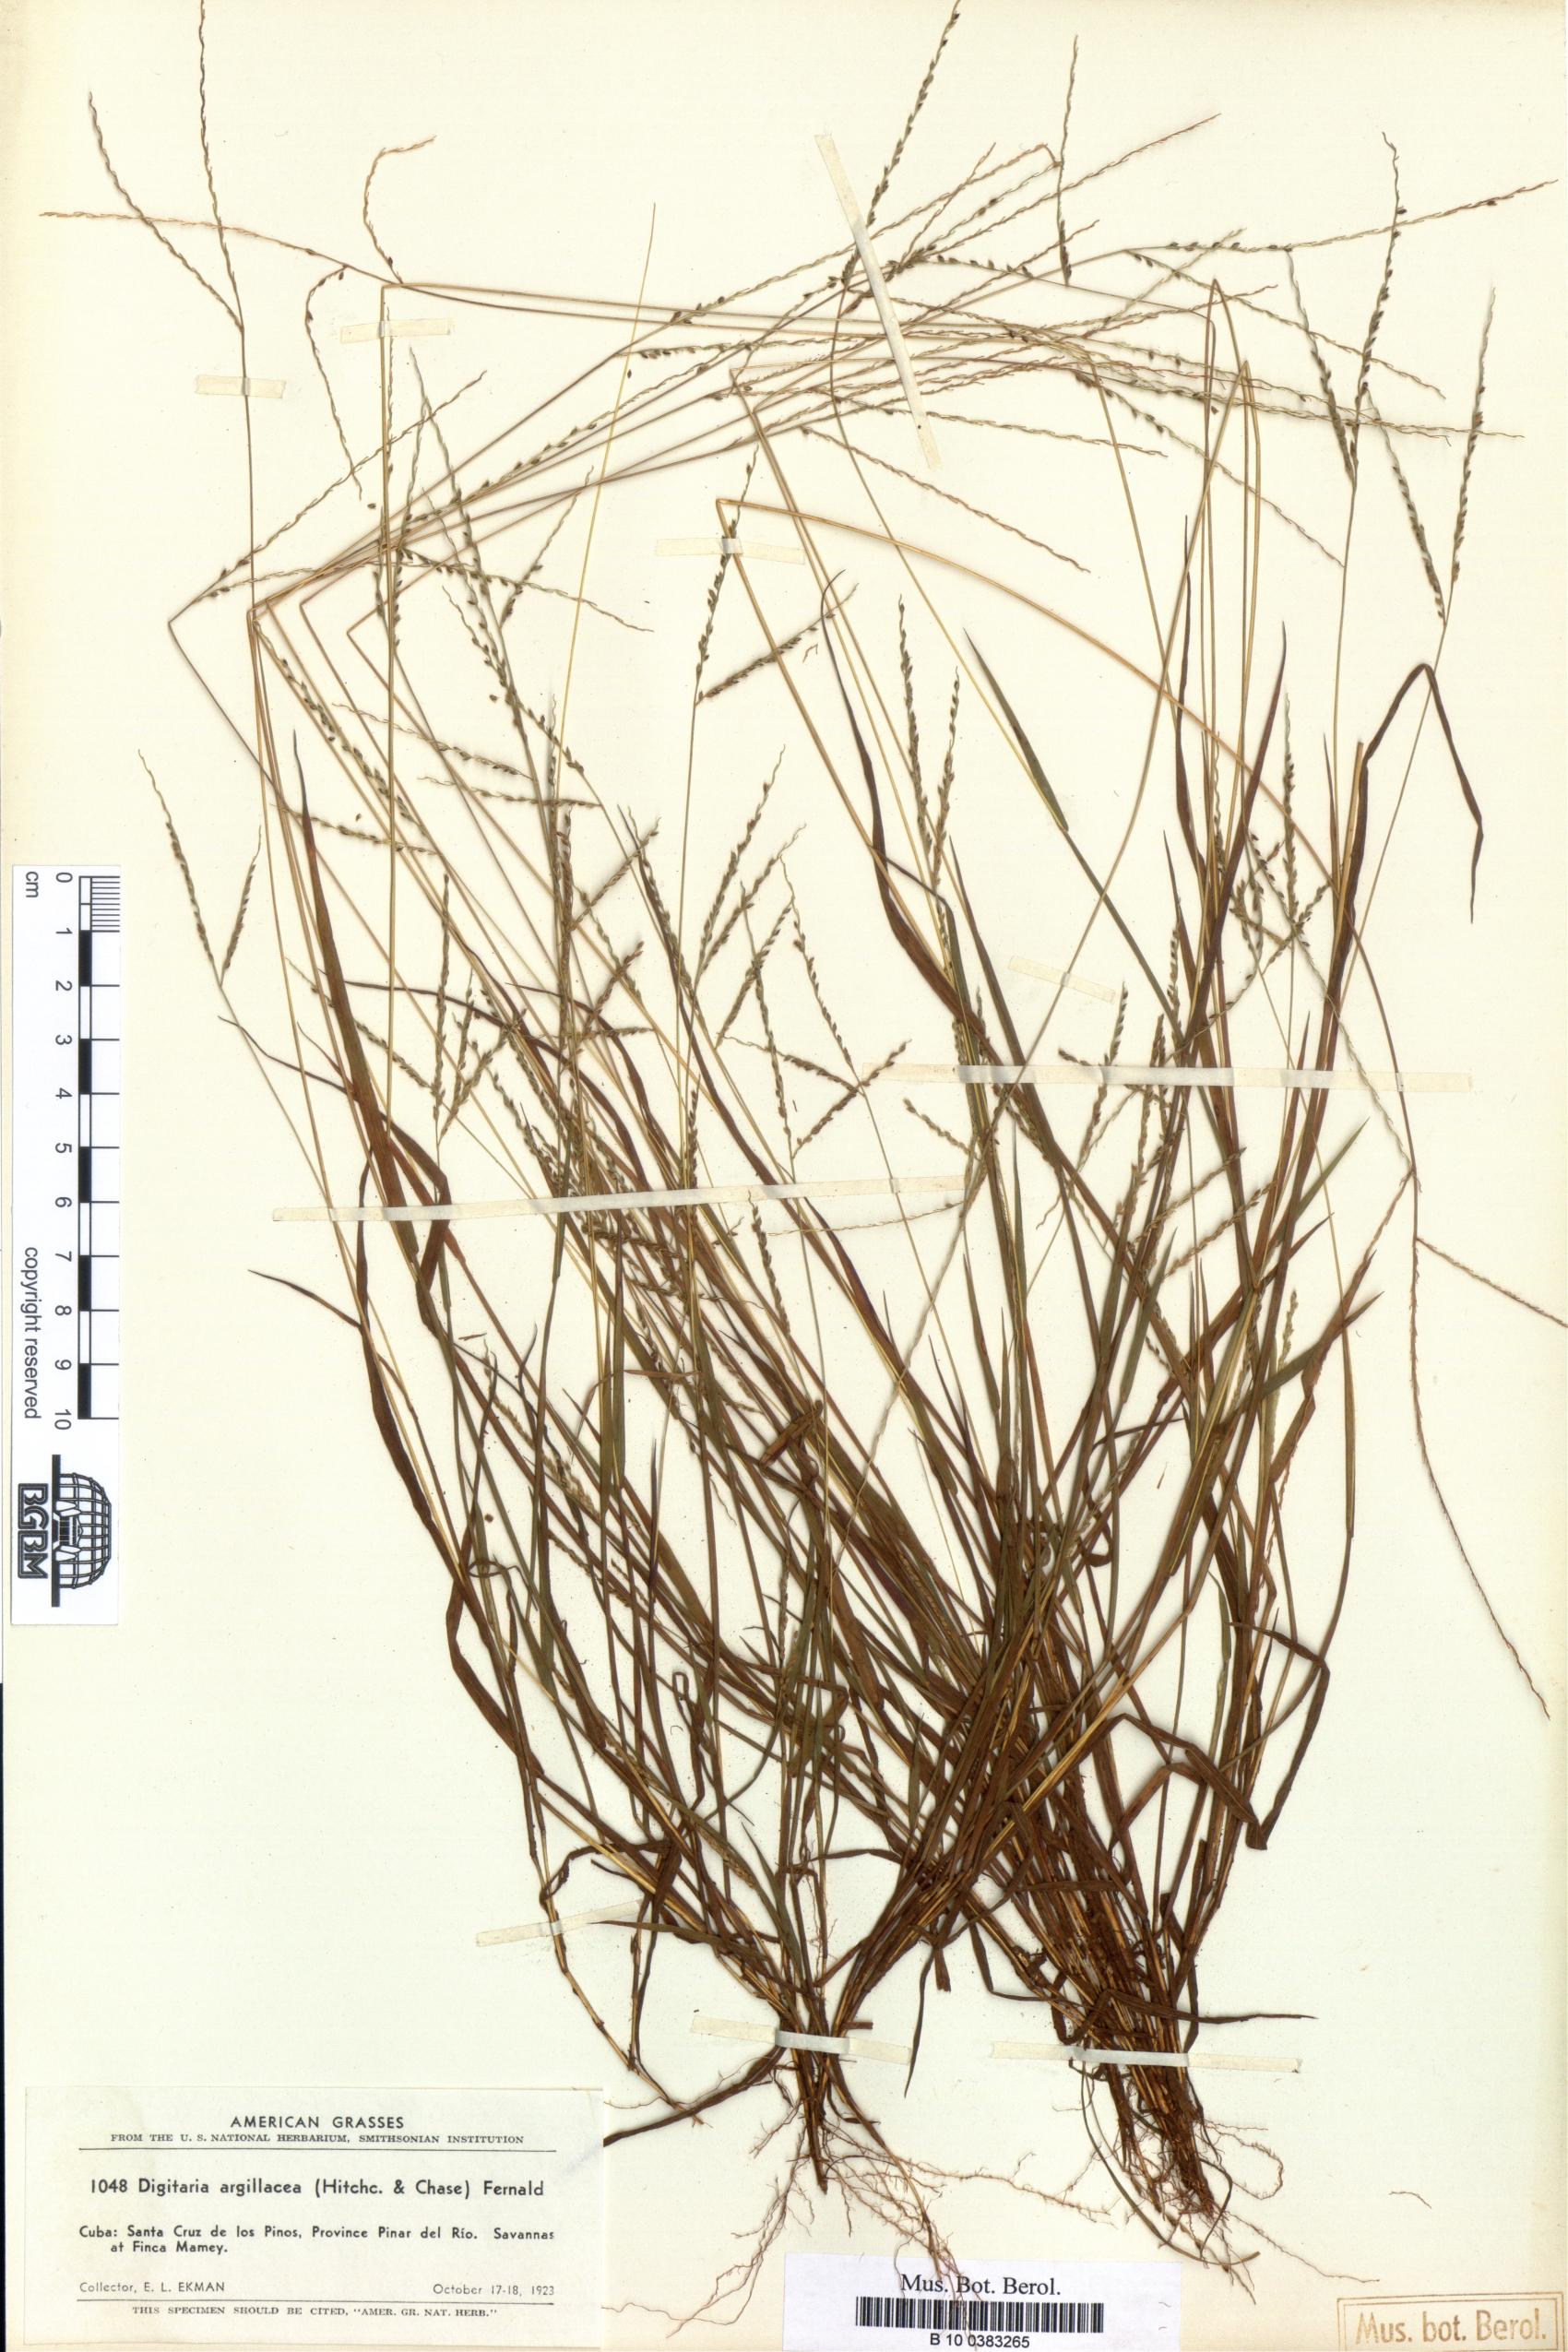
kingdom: Plantae
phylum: Tracheophyta
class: Liliopsida
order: Poales
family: Poaceae
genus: Digitaria
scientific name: Digitaria argillacea
